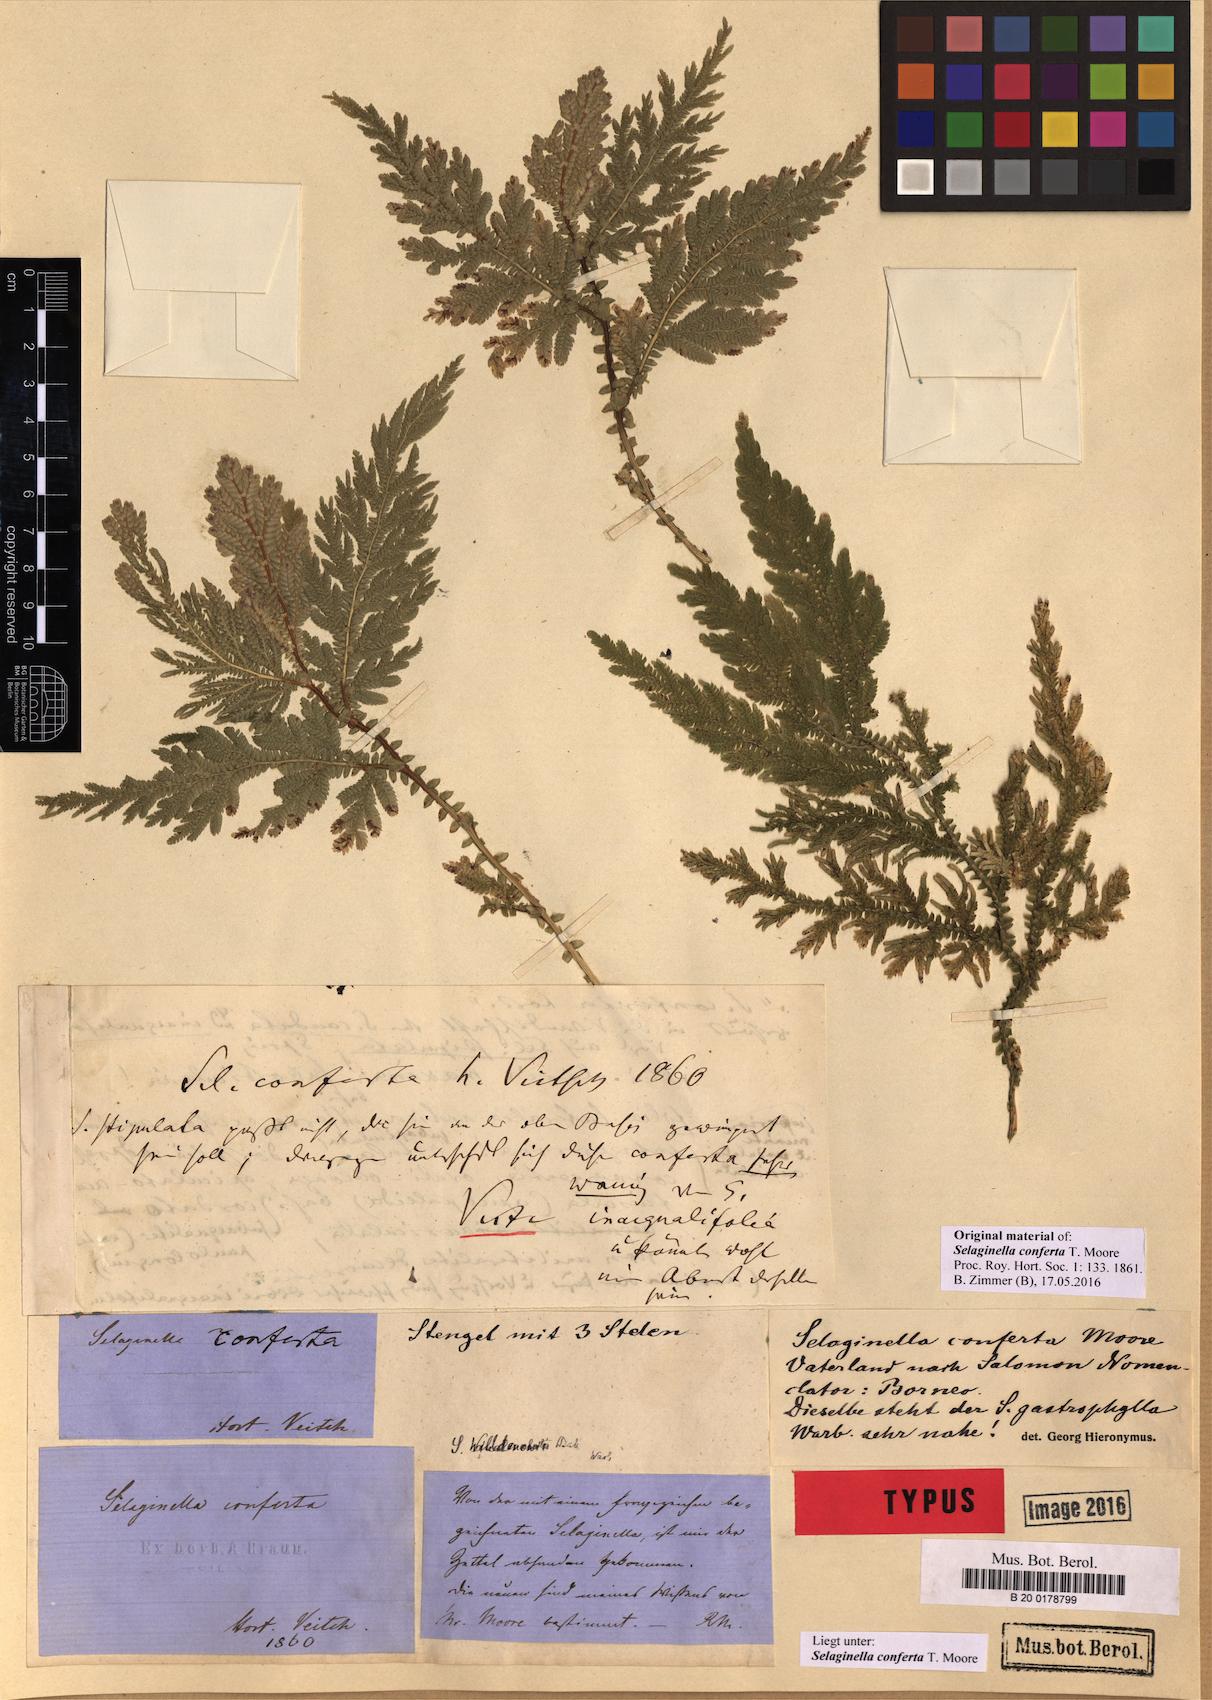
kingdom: Plantae
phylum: Tracheophyta
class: Lycopodiopsida
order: Selaginellales
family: Selaginellaceae
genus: Selaginella
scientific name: Selaginella conferta
